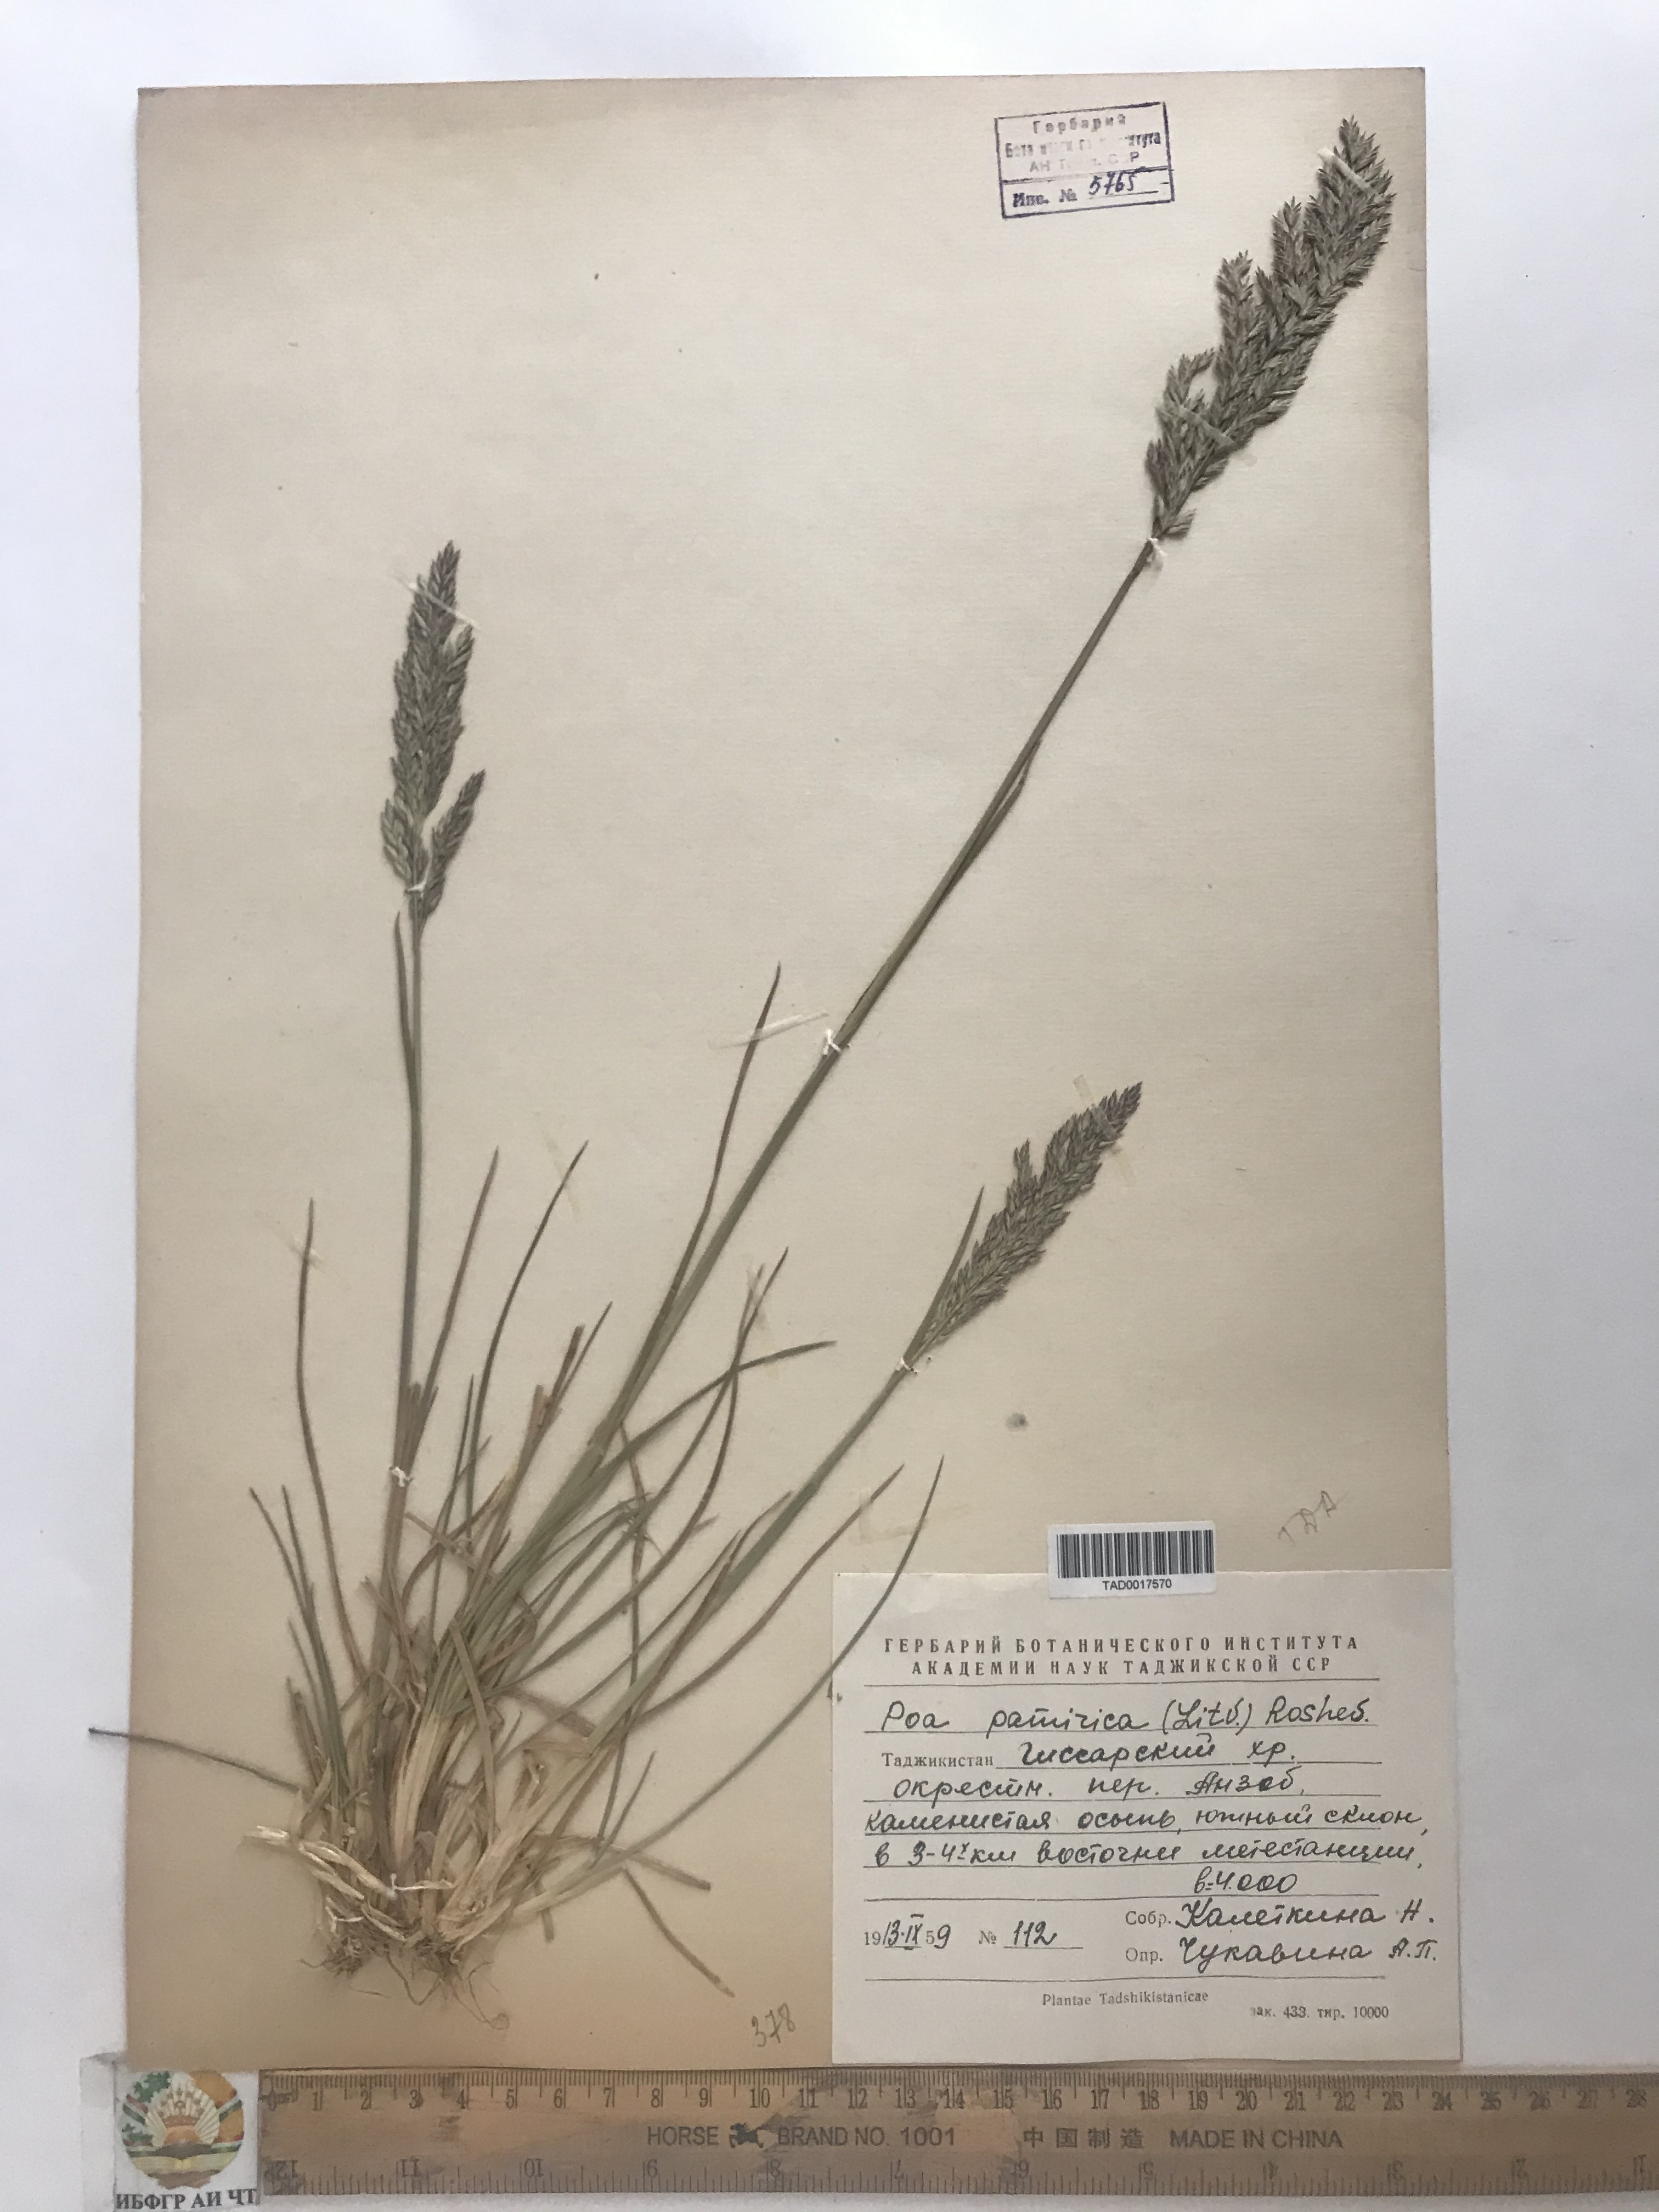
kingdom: Plantae
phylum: Tracheophyta
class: Liliopsida
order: Poales
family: Poaceae
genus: Poa
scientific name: Poa tianschanica
